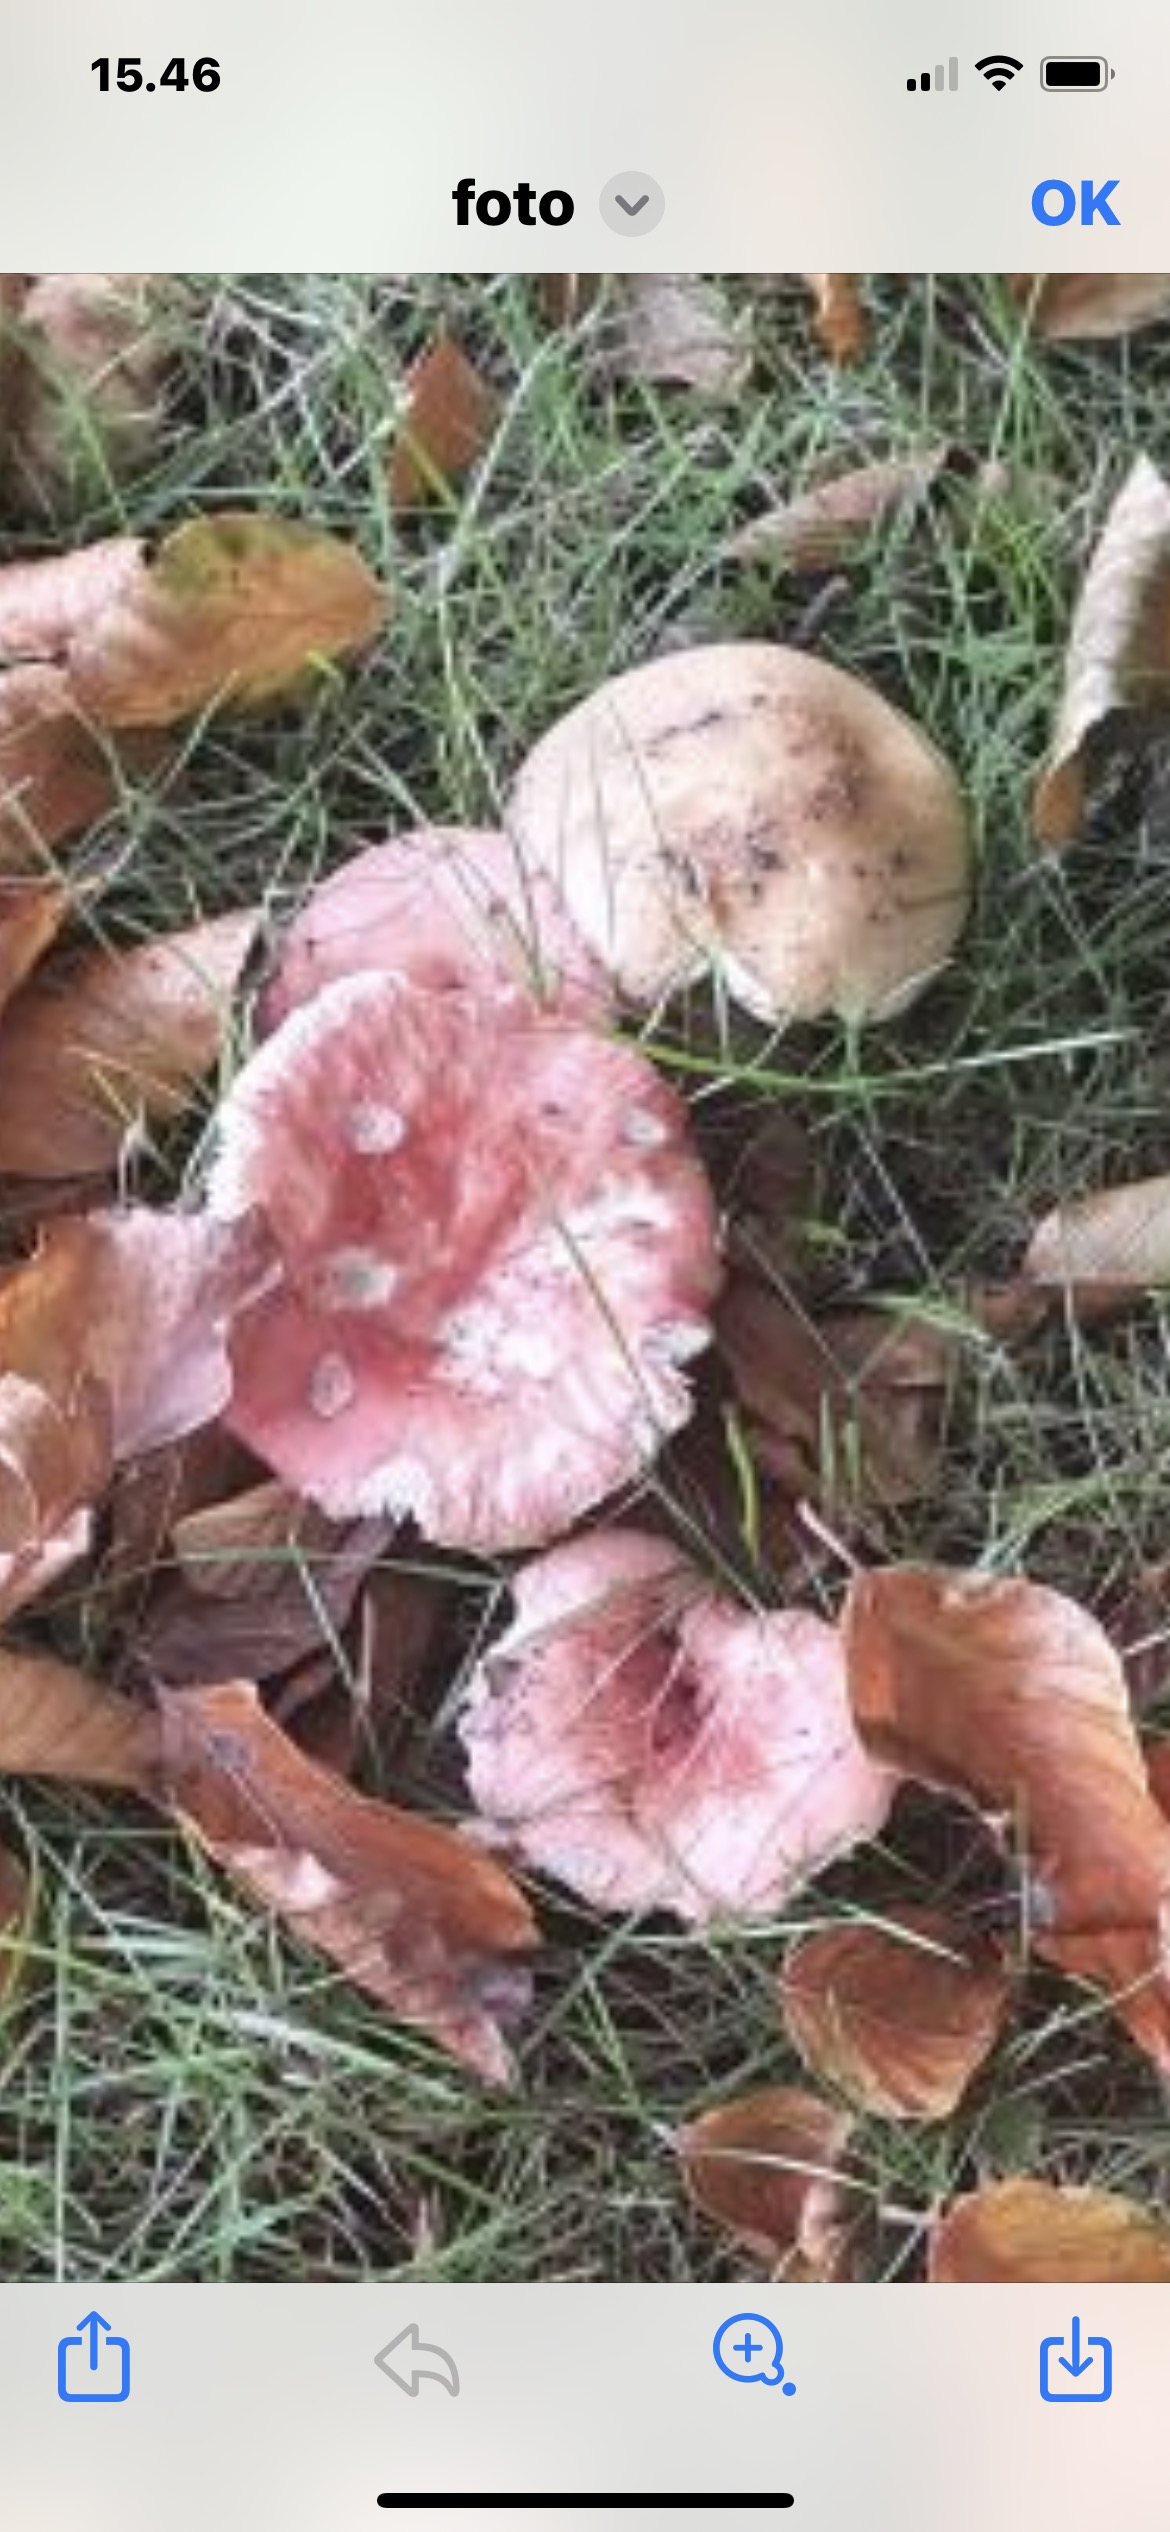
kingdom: Fungi
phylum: Basidiomycota
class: Agaricomycetes
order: Russulales
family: Russulaceae
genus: Russula
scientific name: Russula
